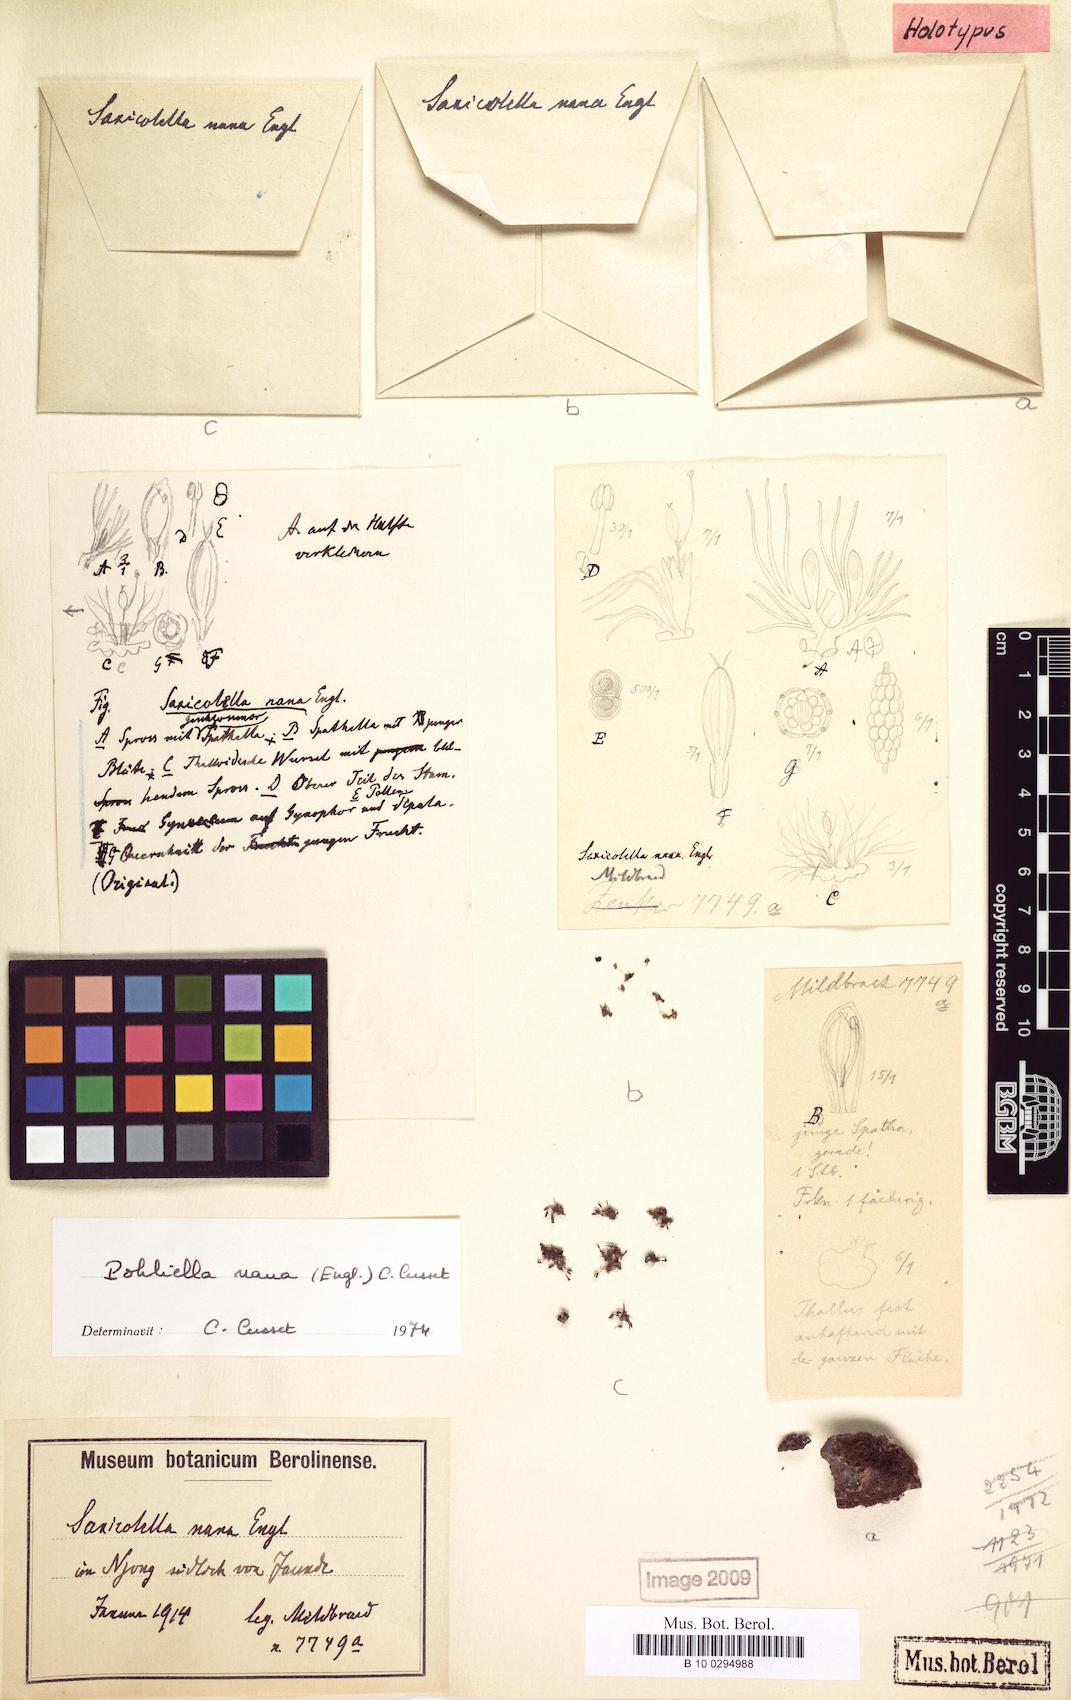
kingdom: Plantae
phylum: Tracheophyta
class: Magnoliopsida
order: Malpighiales
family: Podostemaceae
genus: Saxicolella
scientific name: Saxicolella nana
